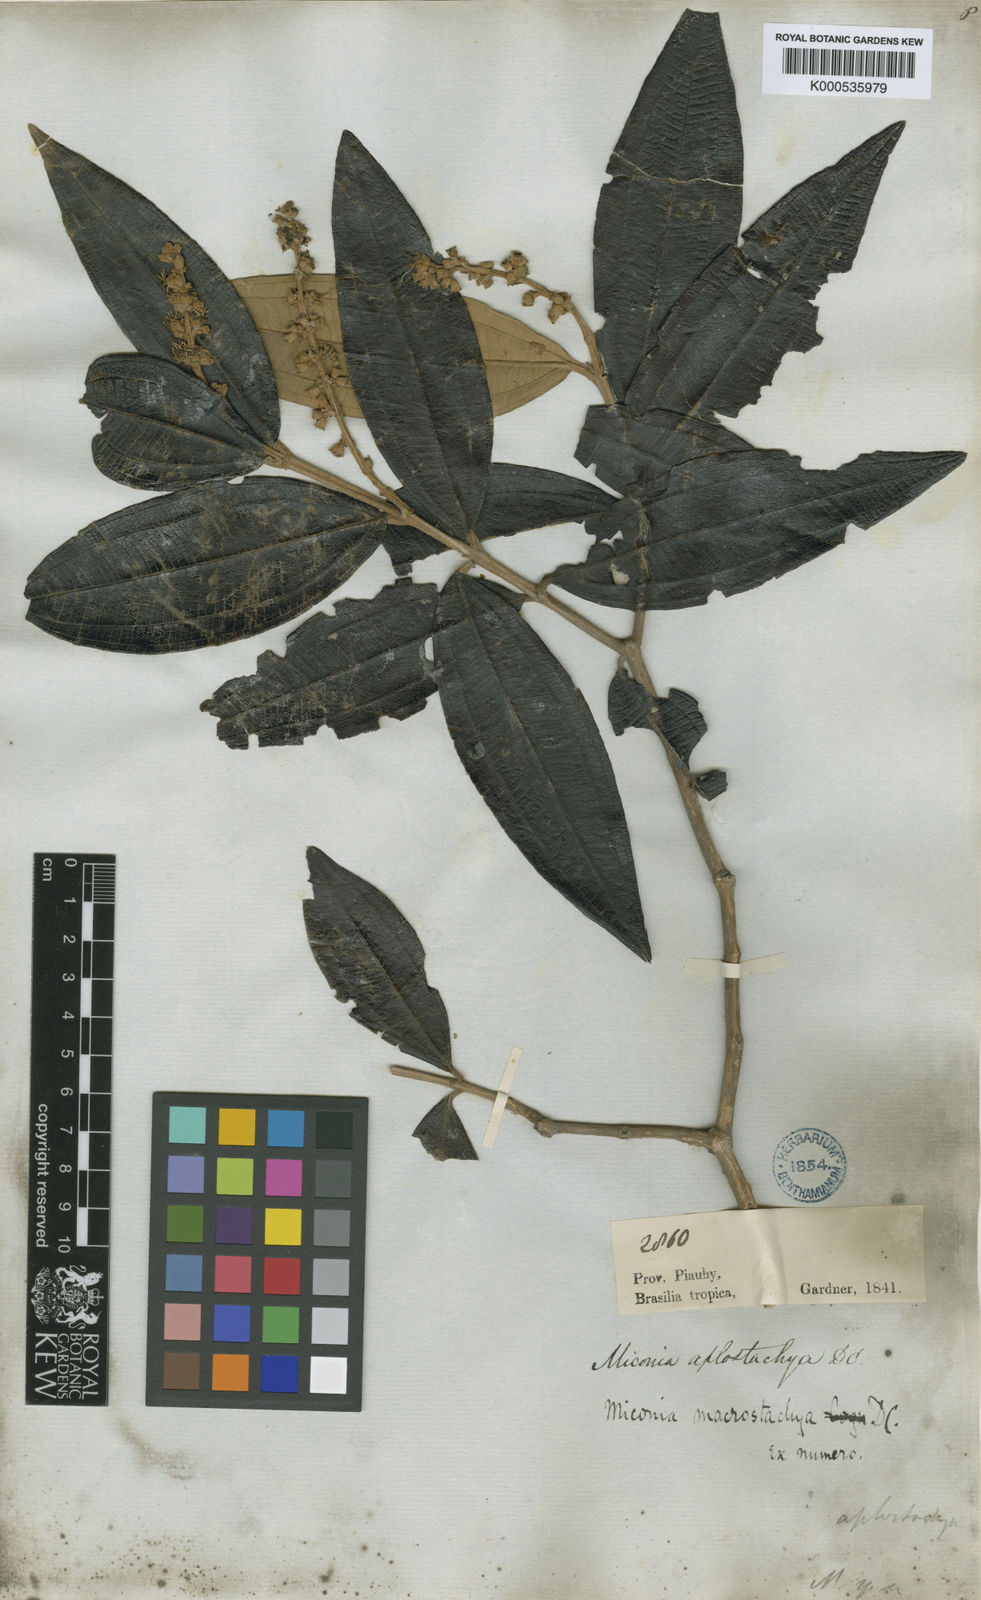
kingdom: Plantae
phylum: Tracheophyta
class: Magnoliopsida
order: Myrtales
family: Melastomataceae
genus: Miconia
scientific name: Miconia aplostachya
